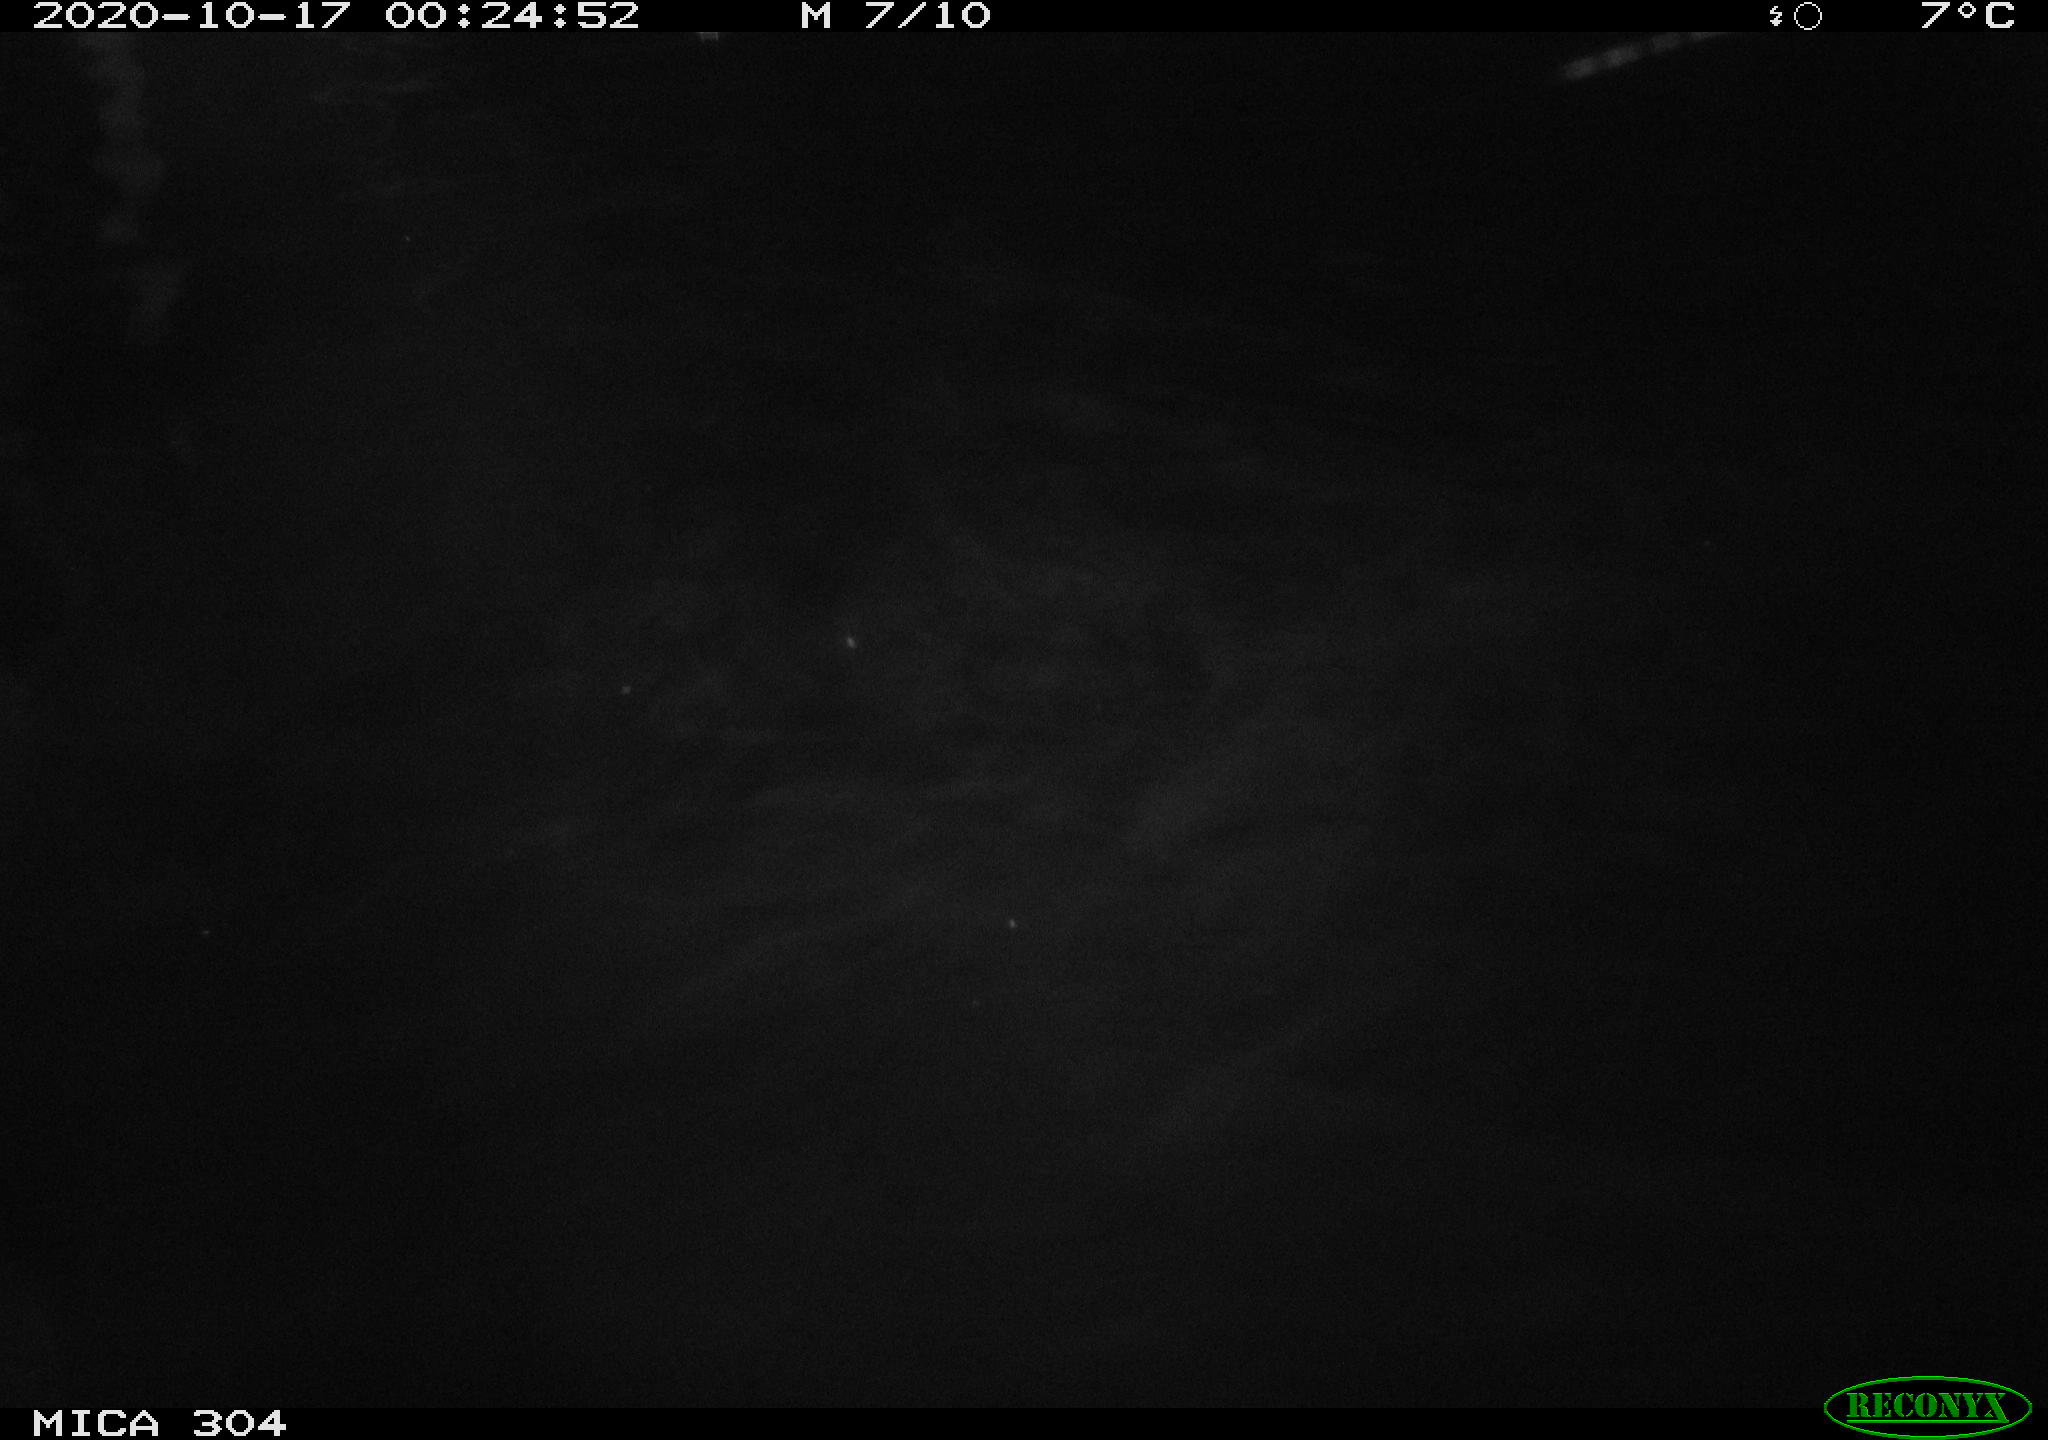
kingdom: Animalia
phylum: Chordata
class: Mammalia
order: Rodentia
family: Cricetidae
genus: Ondatra
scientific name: Ondatra zibethicus
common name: Muskrat
